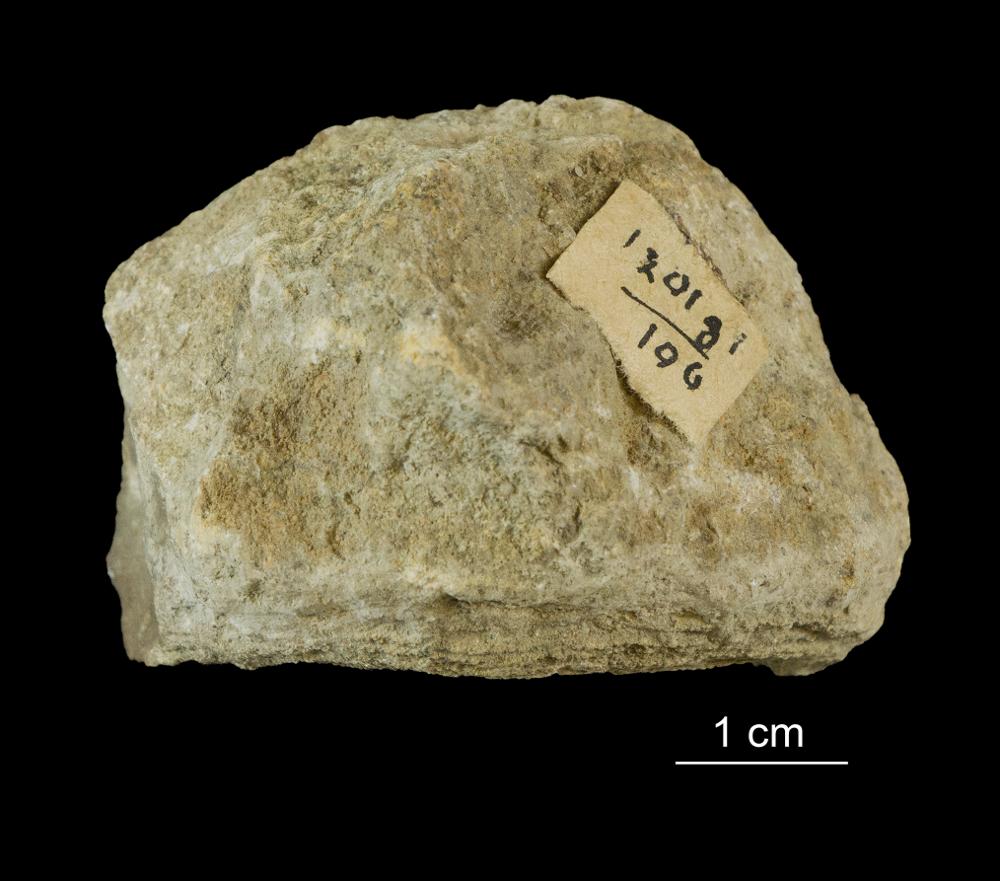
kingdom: Animalia
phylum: Bryozoa
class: Stenolaemata
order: Trepostomatida
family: Dianulitidae
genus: Dianulites
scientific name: Dianulites petropolitanus
